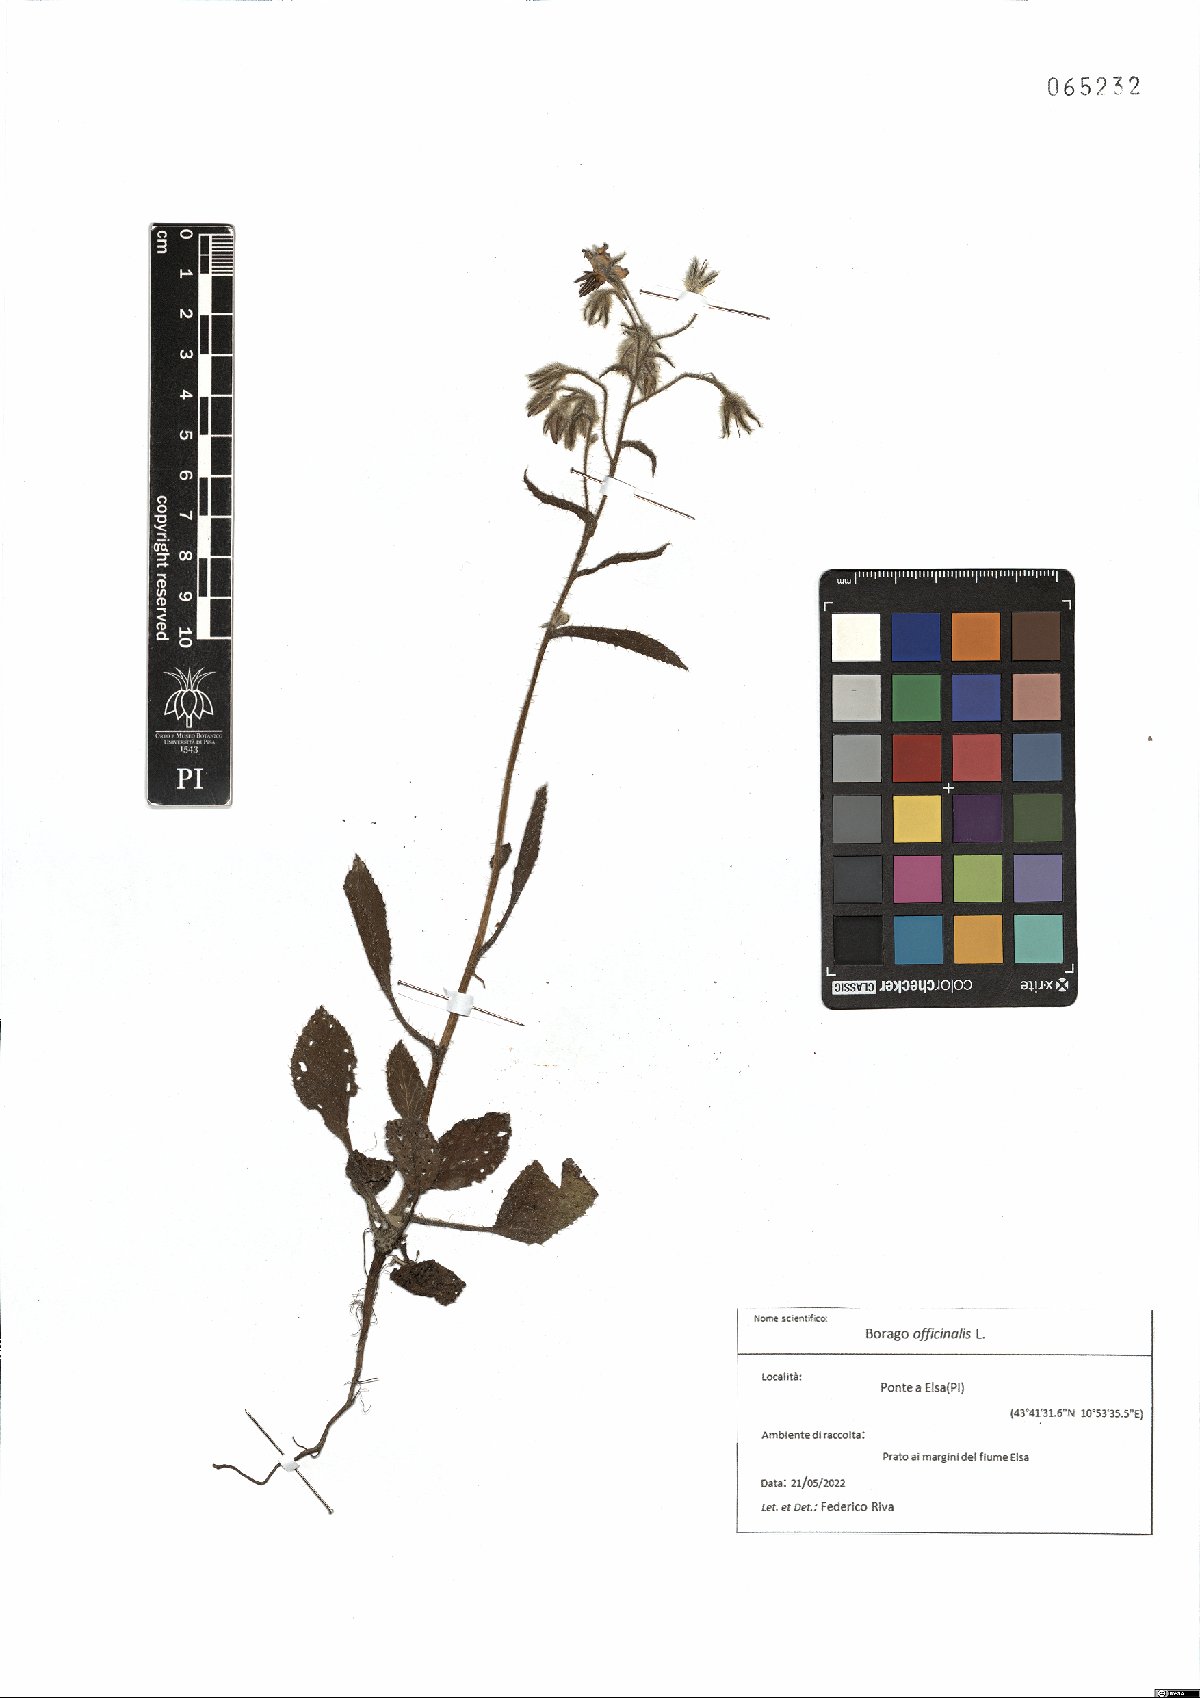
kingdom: Plantae
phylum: Tracheophyta
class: Magnoliopsida
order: Boraginales
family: Boraginaceae
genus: Borago
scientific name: Borago officinalis
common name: Borage
